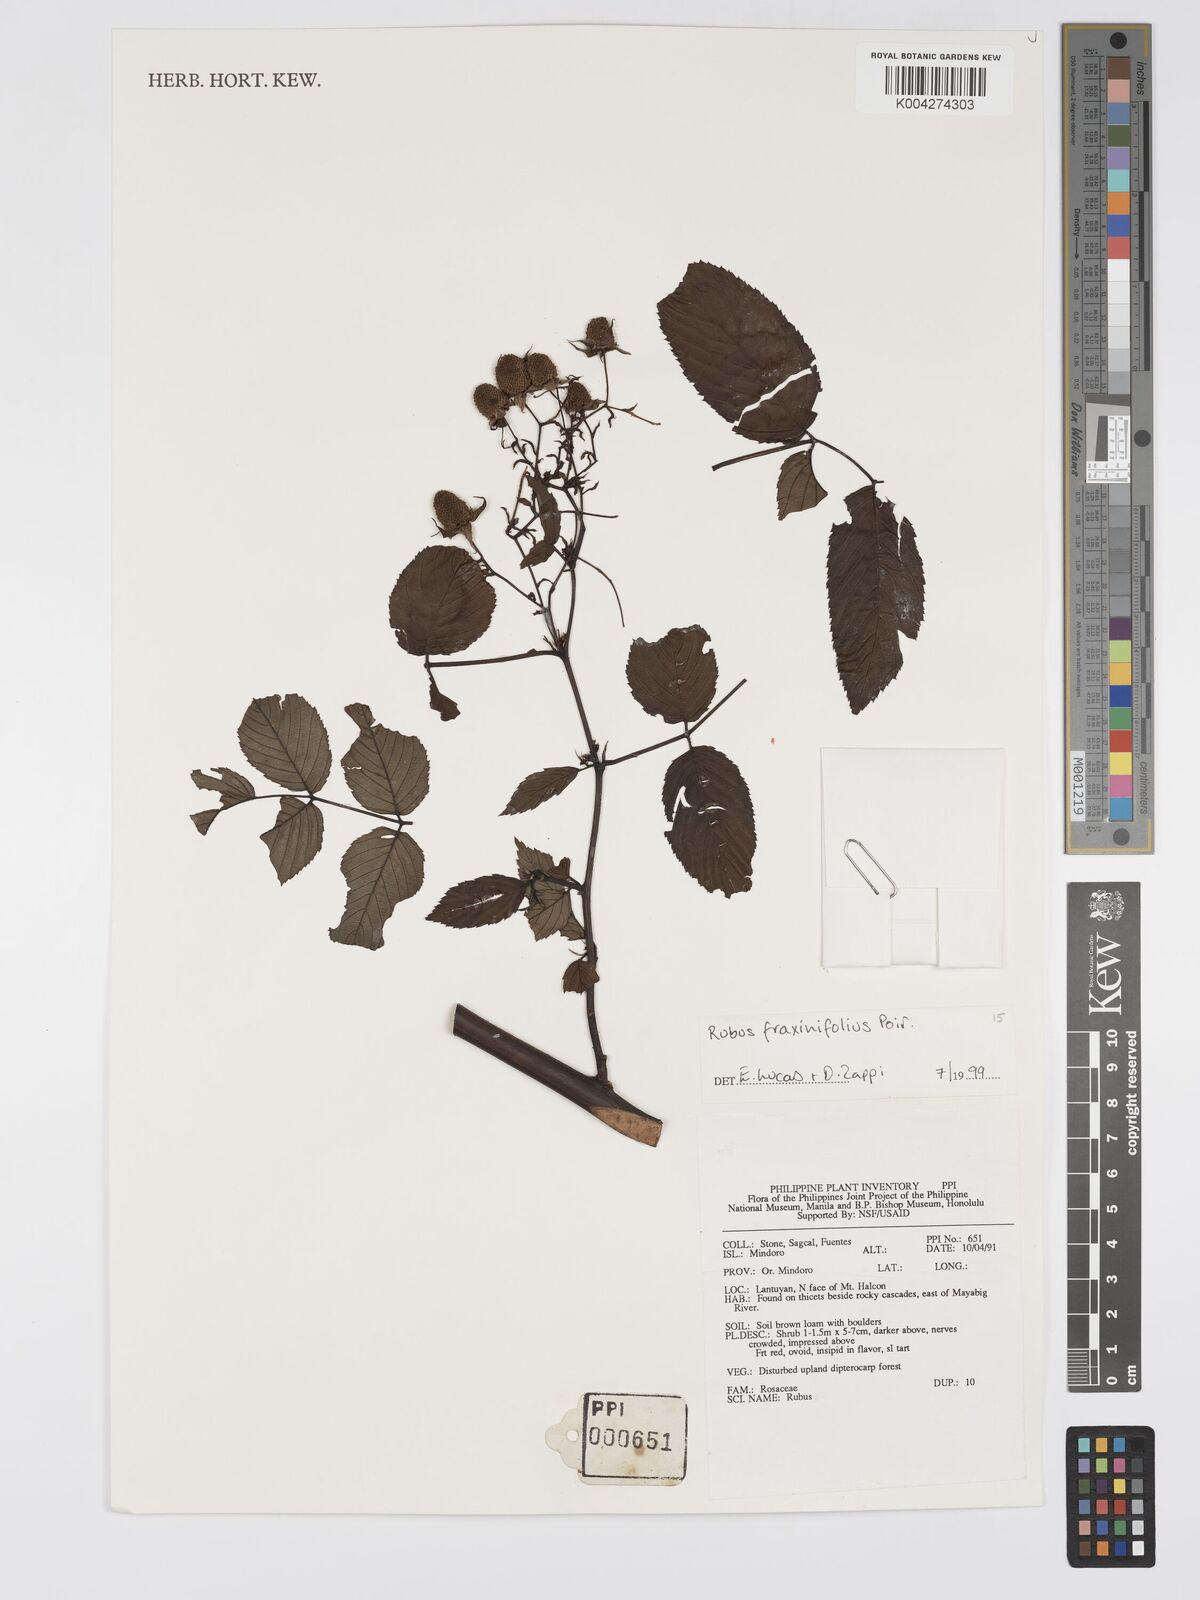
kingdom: Plantae
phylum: Tracheophyta
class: Magnoliopsida
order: Rosales
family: Rosaceae
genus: Rubus
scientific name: Rubus fraxinifolius
